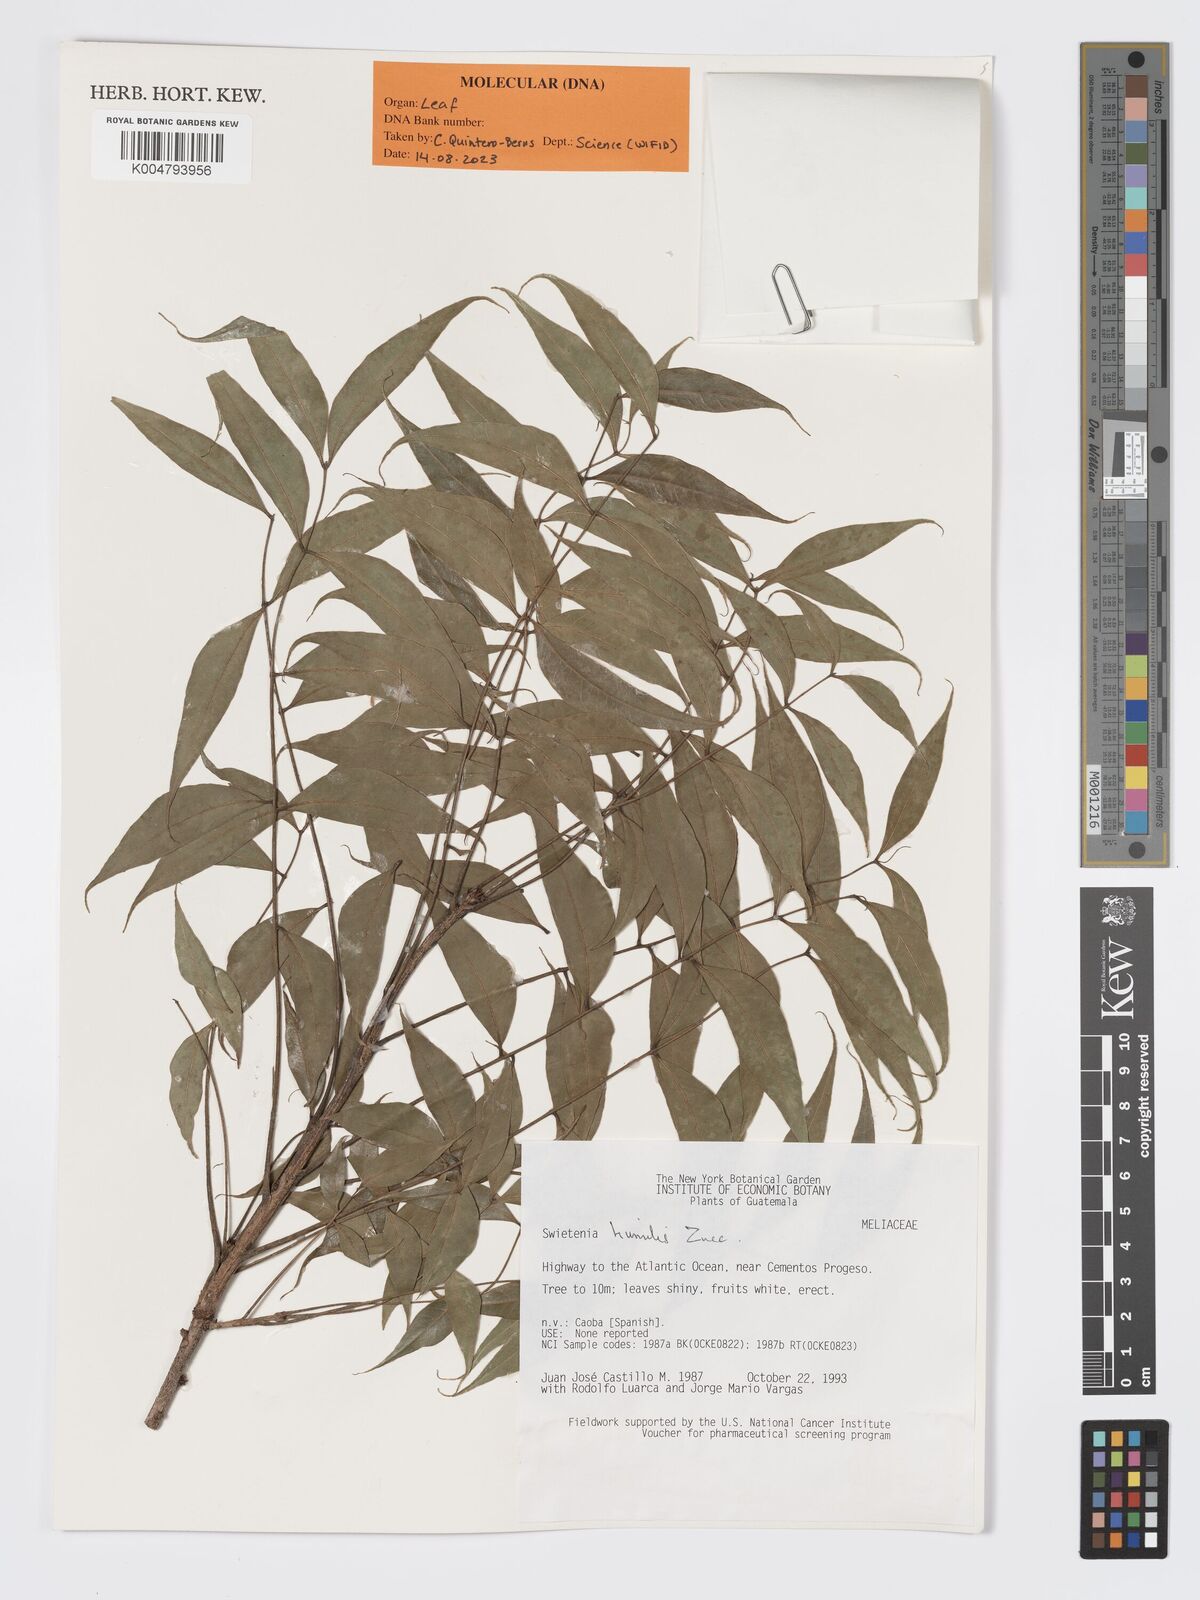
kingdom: Plantae
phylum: Tracheophyta
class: Magnoliopsida
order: Sapindales
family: Meliaceae
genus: Swietenia
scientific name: Swietenia humilis
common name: Pacific coast mahogany
